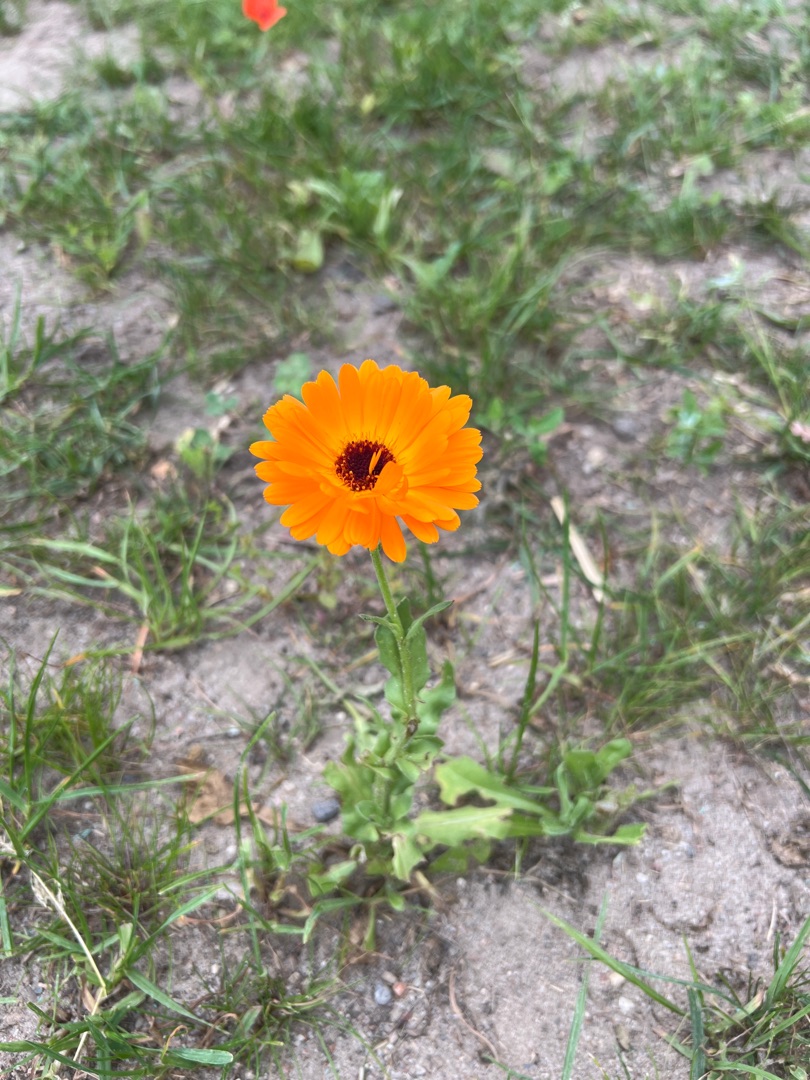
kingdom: Plantae
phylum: Tracheophyta
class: Magnoliopsida
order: Asterales
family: Asteraceae
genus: Calendula
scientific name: Calendula officinalis
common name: Have-morgenfrue
